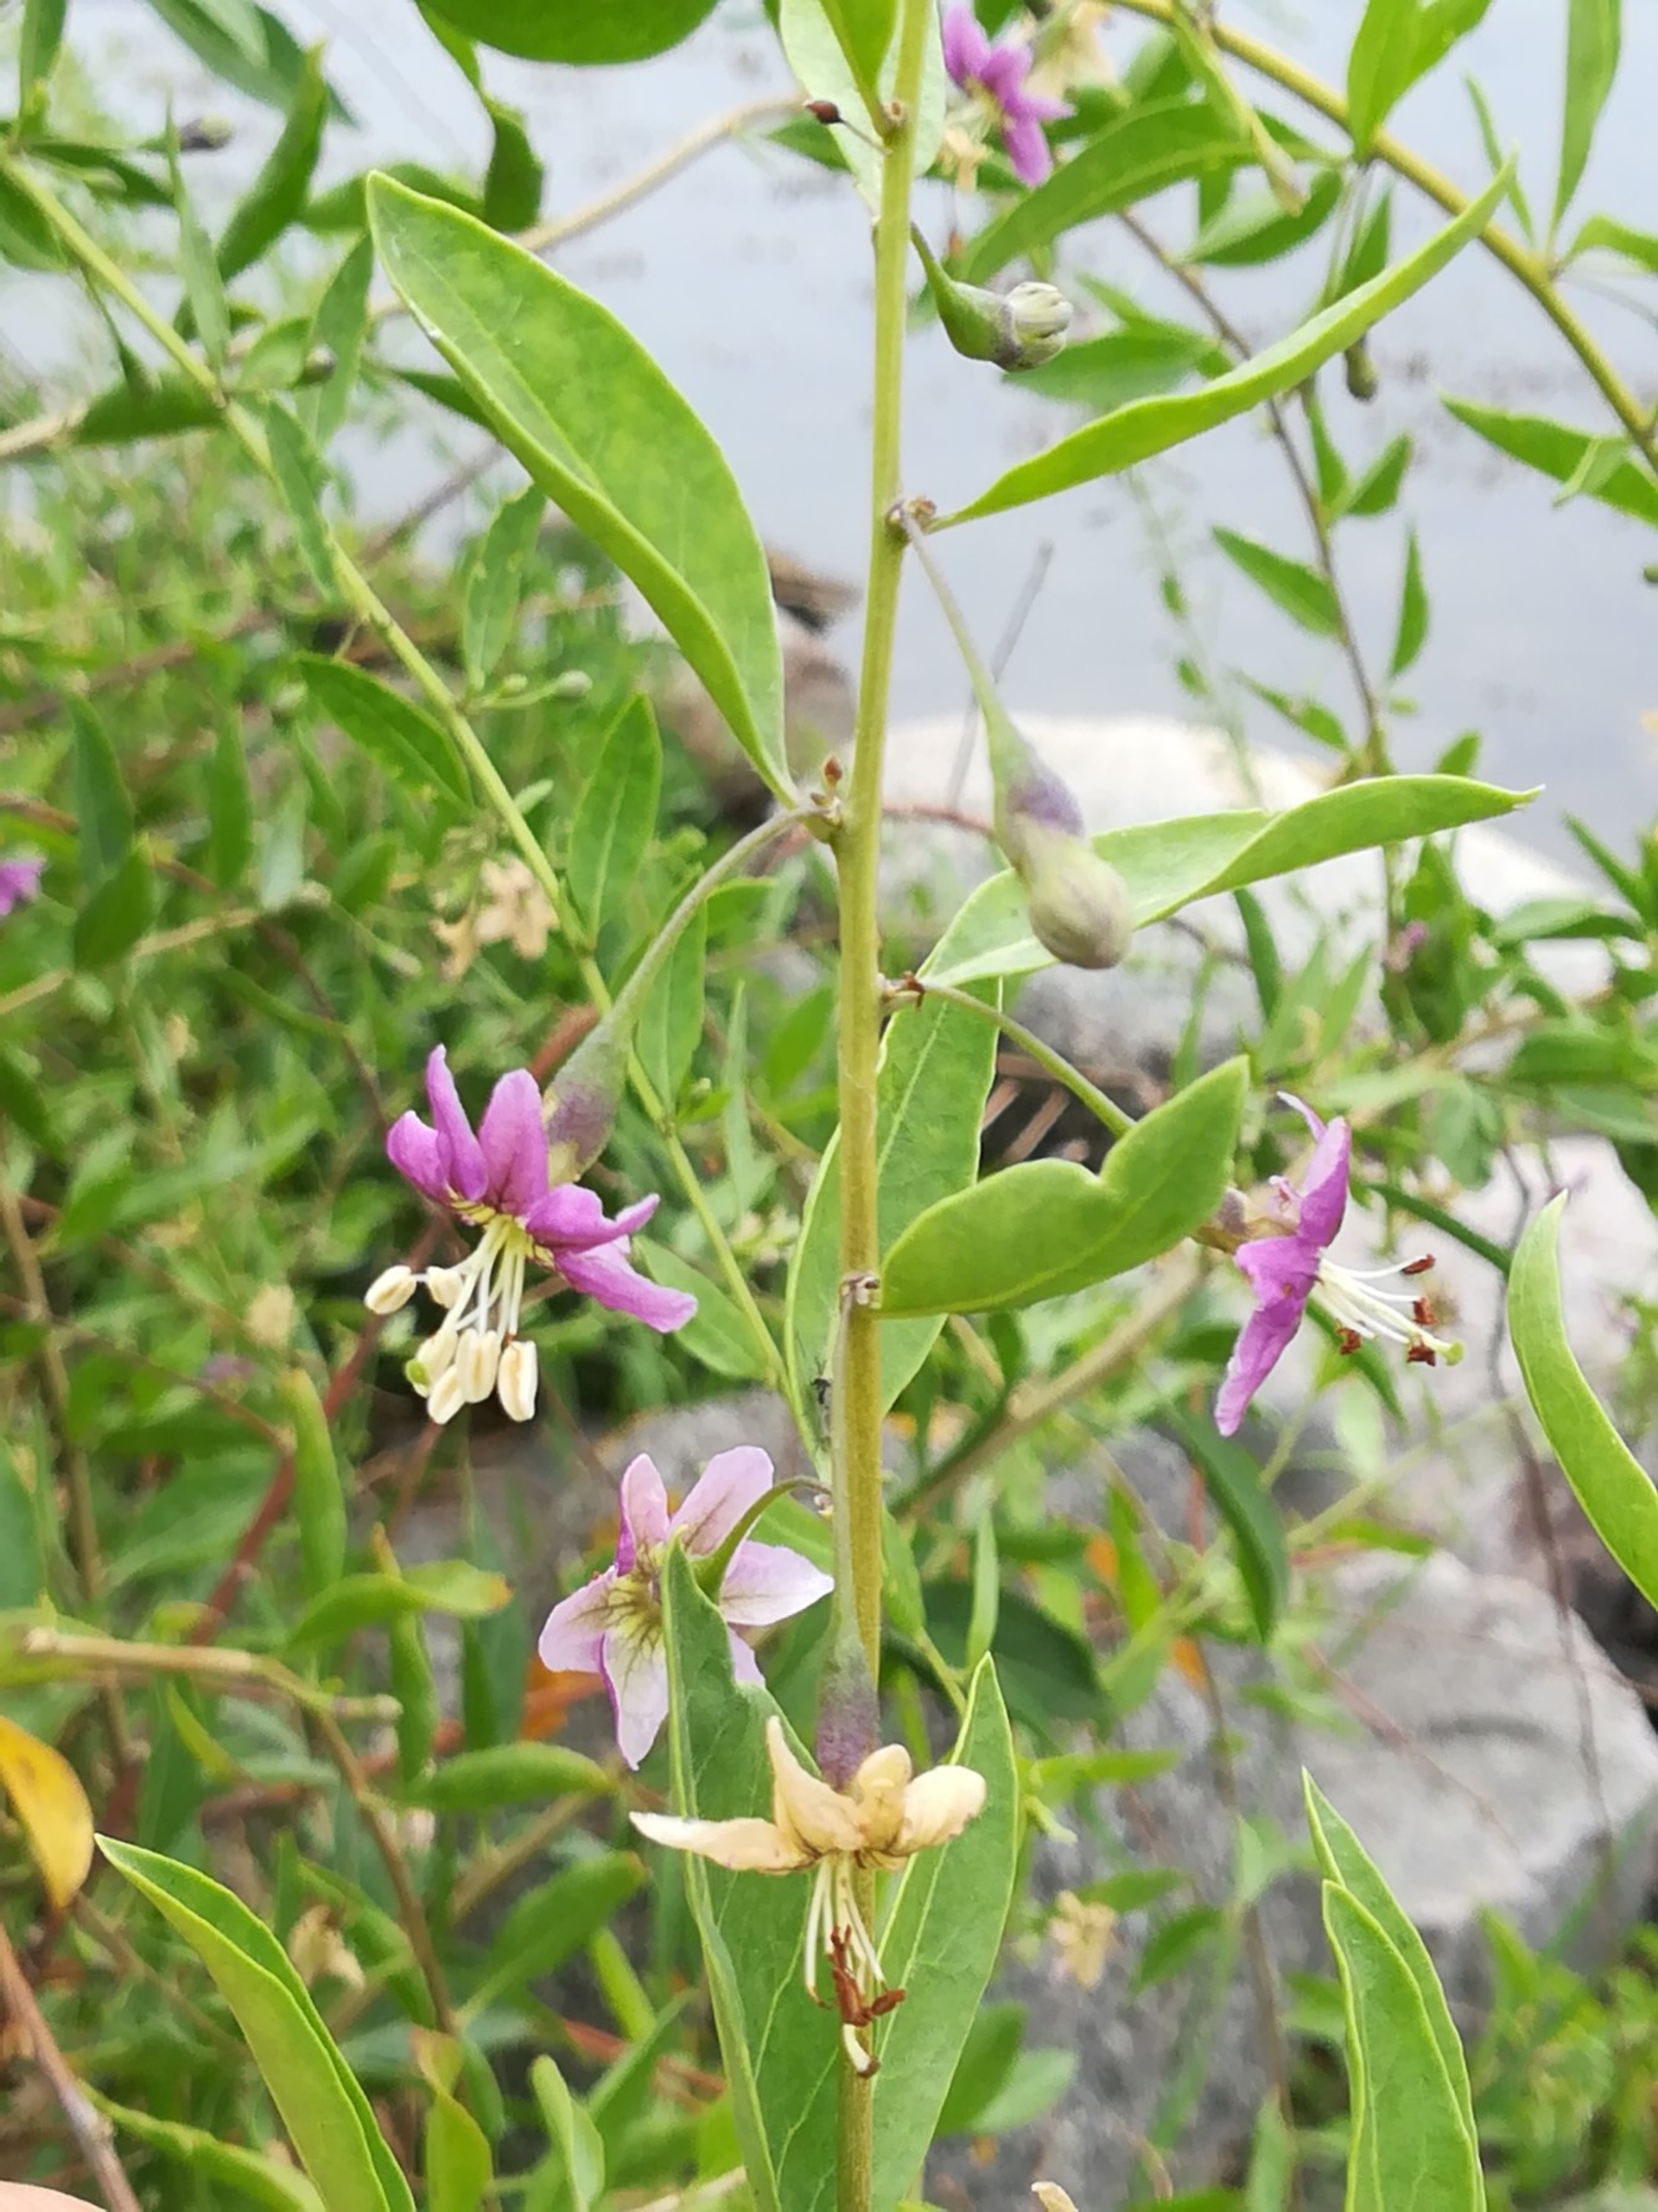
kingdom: Plantae
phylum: Tracheophyta
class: Magnoliopsida
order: Solanales
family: Solanaceae
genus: Lycium
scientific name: Lycium barbarum
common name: Bukketorn
